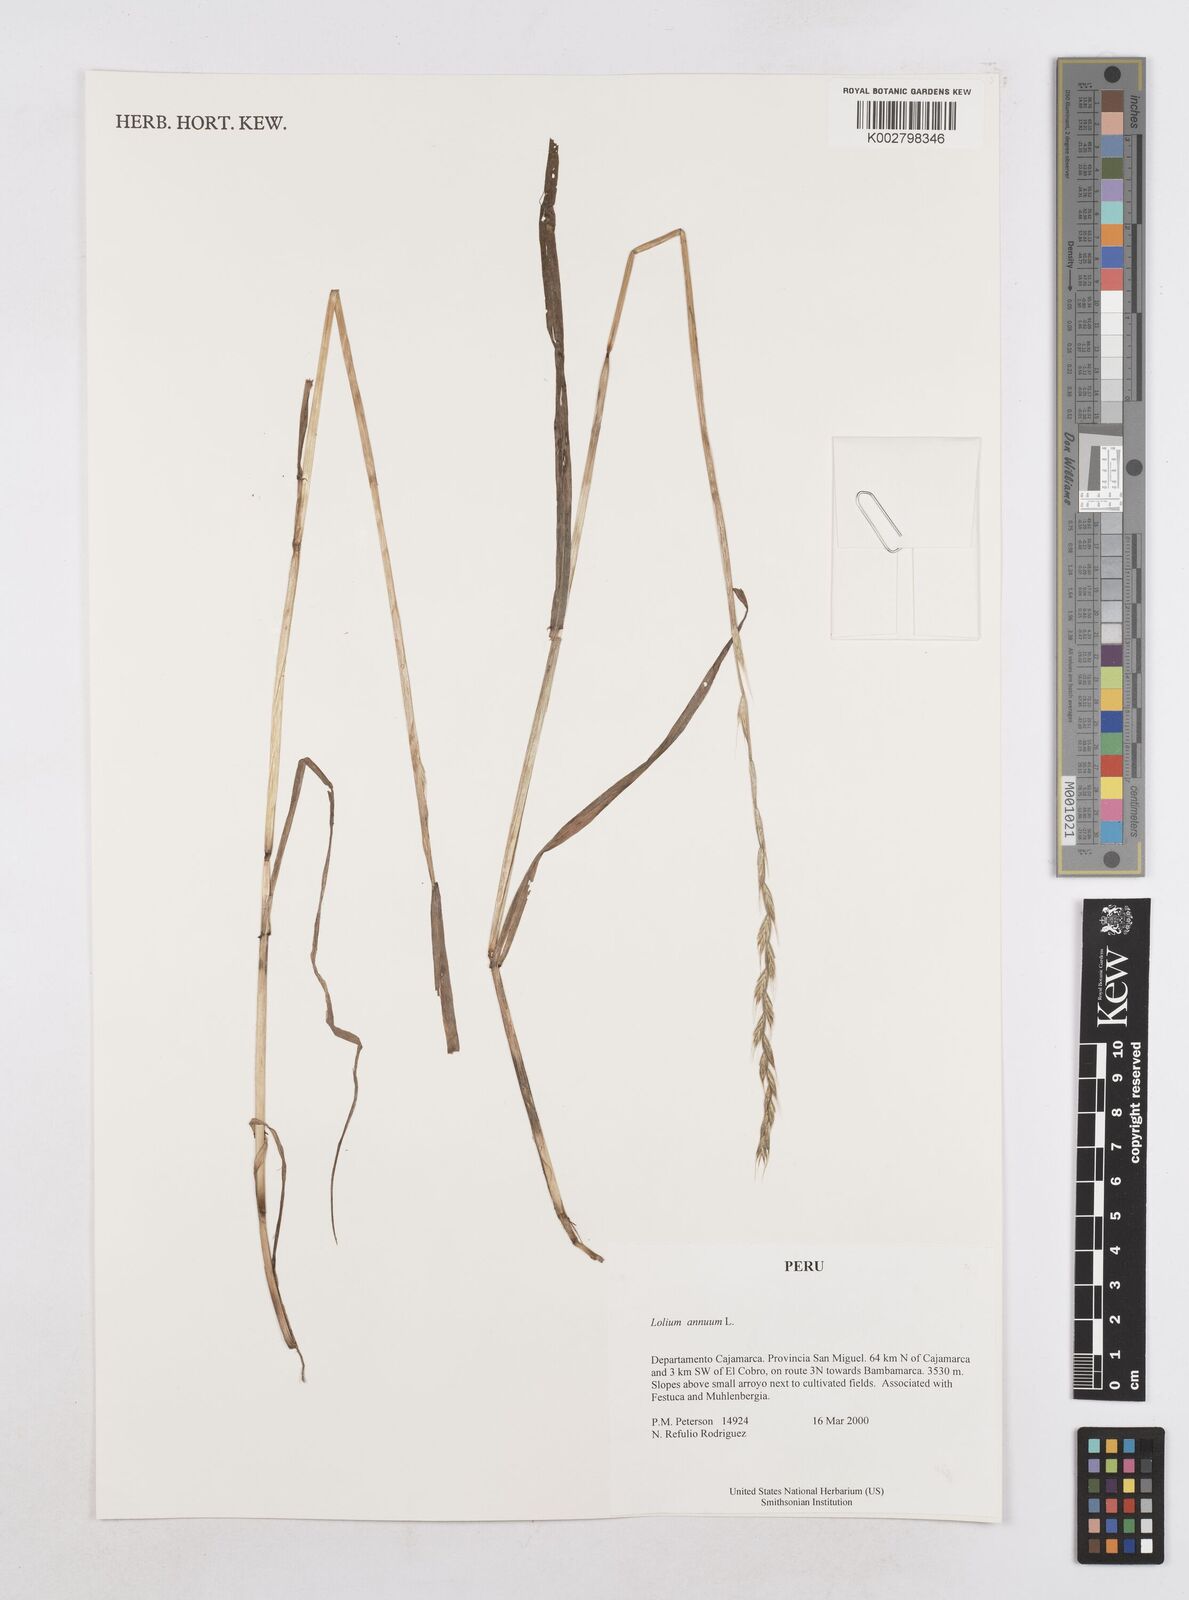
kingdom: Plantae
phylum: Tracheophyta
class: Liliopsida
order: Poales
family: Poaceae
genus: Lolium
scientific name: Lolium multiflorum
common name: Annual ryegrass
